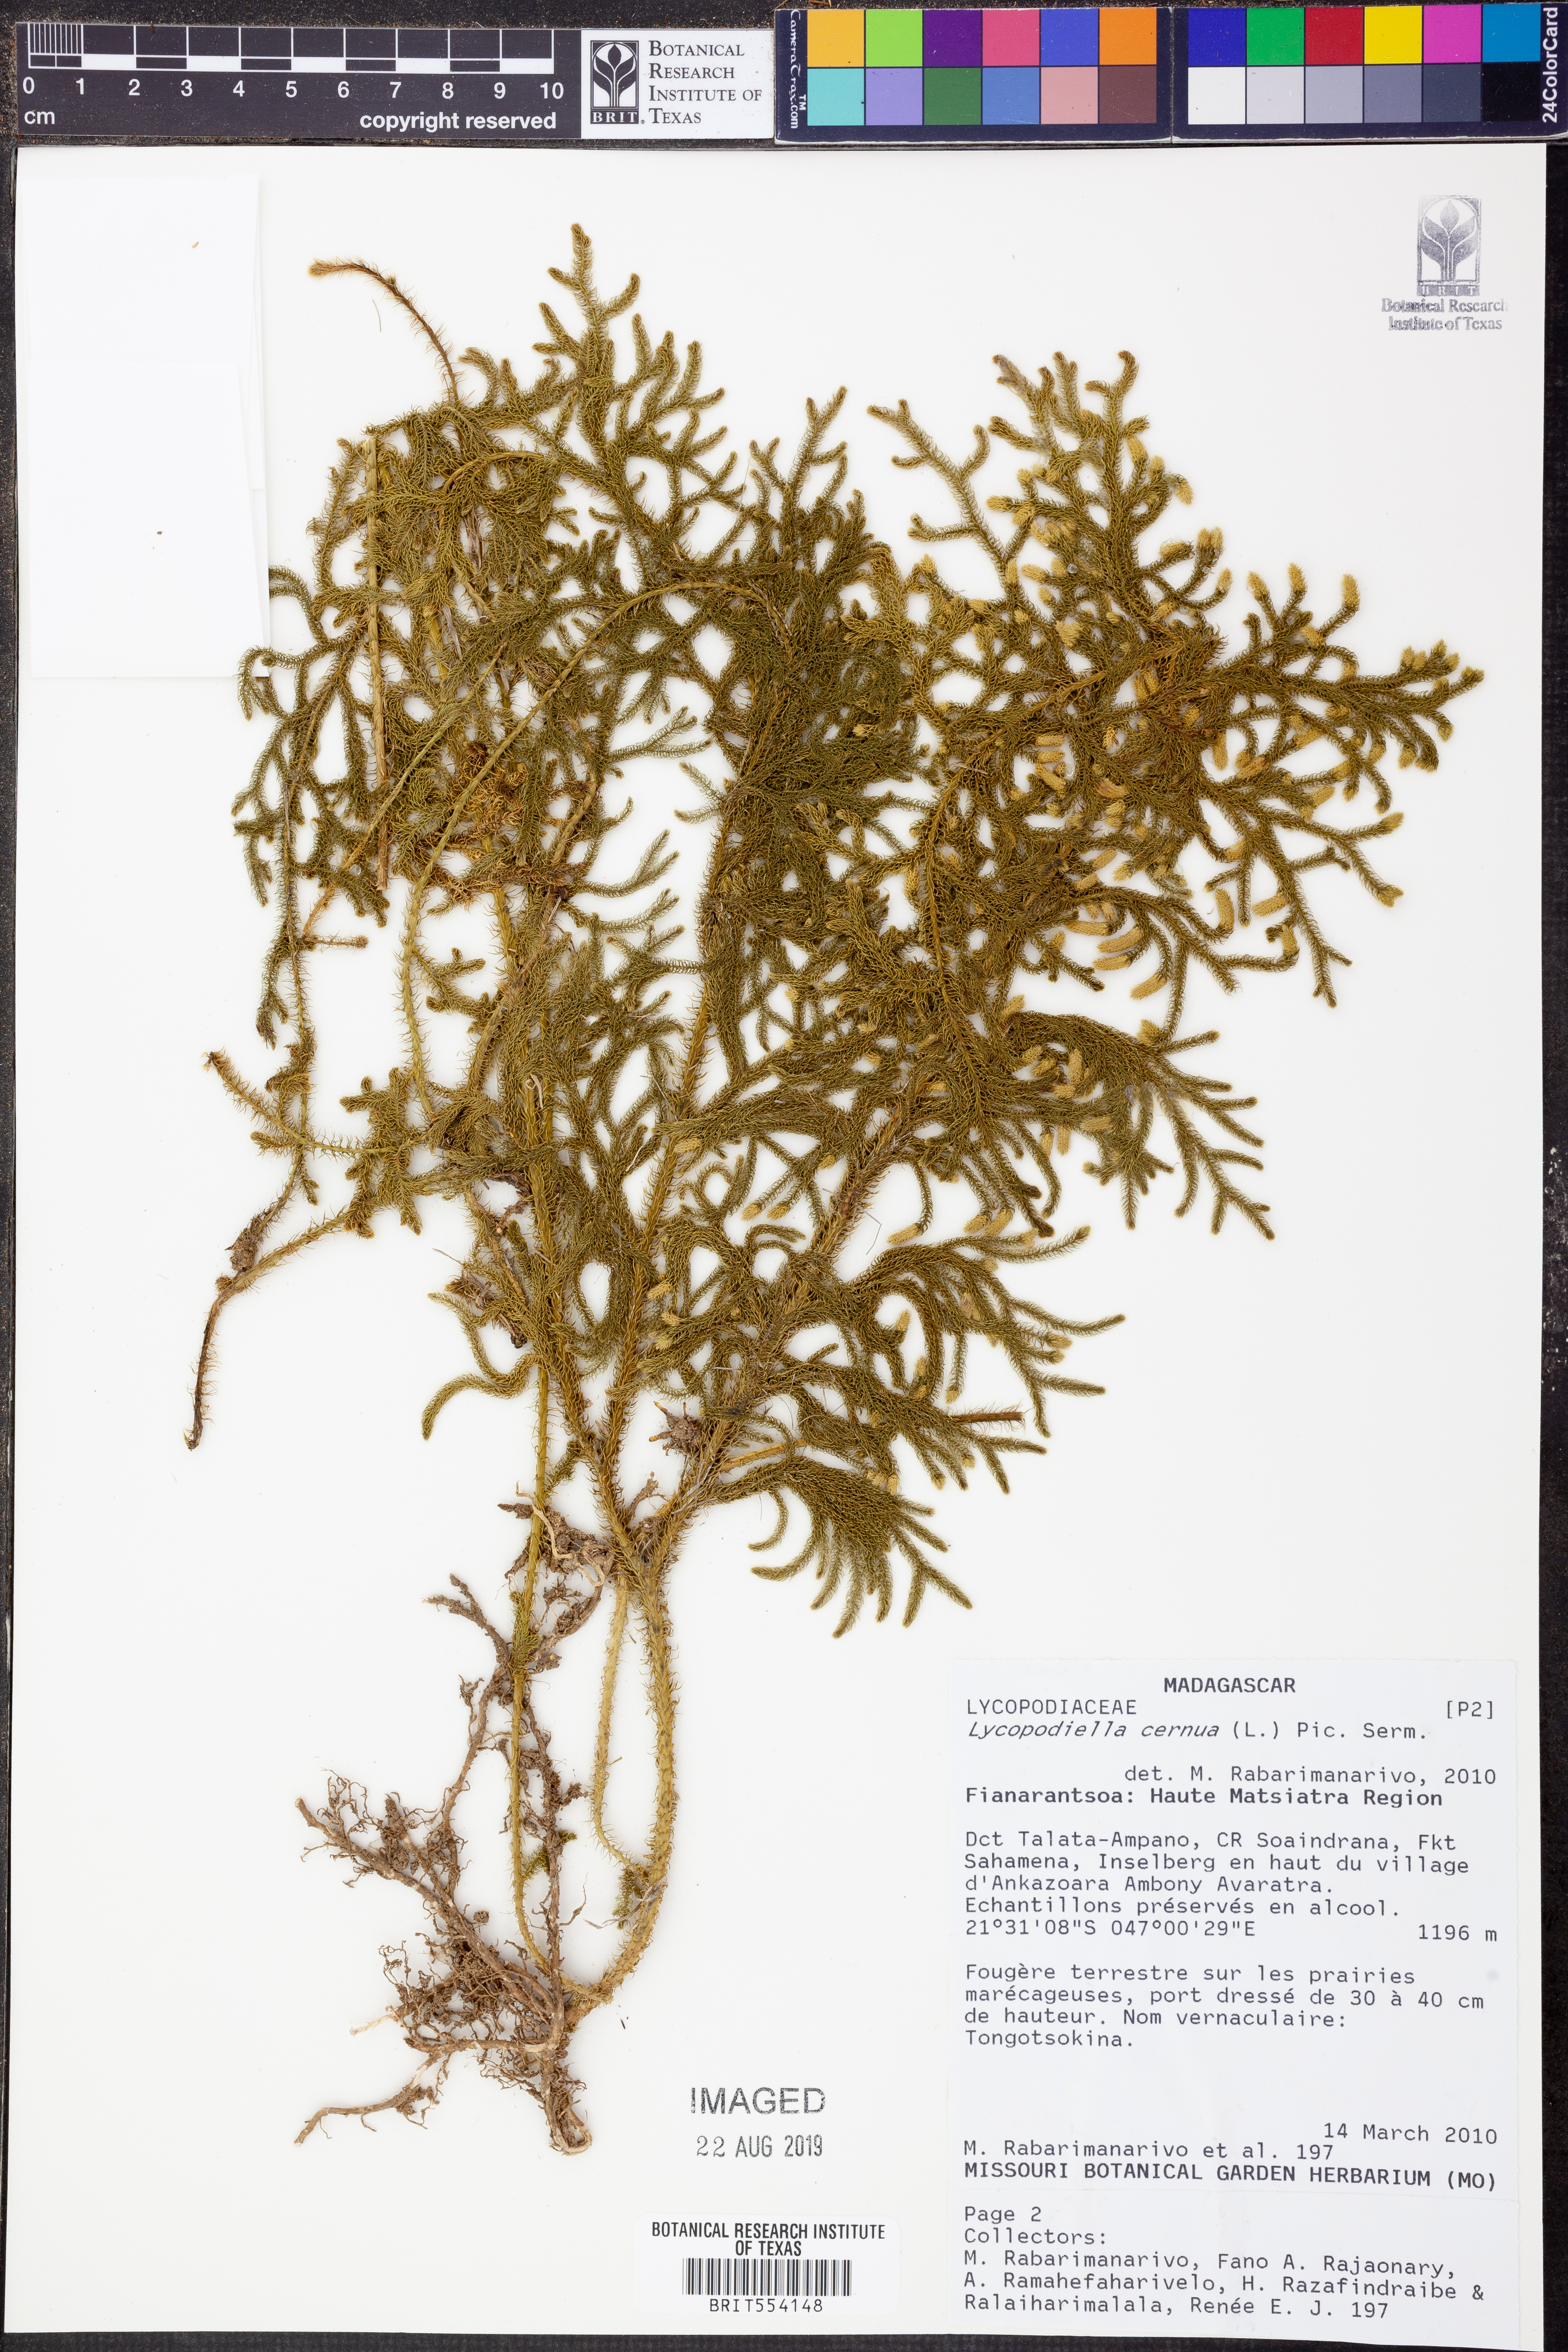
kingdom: Plantae
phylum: Tracheophyta
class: Lycopodiopsida
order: Lycopodiales
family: Lycopodiaceae
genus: Palhinhaea
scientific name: Palhinhaea cernua
